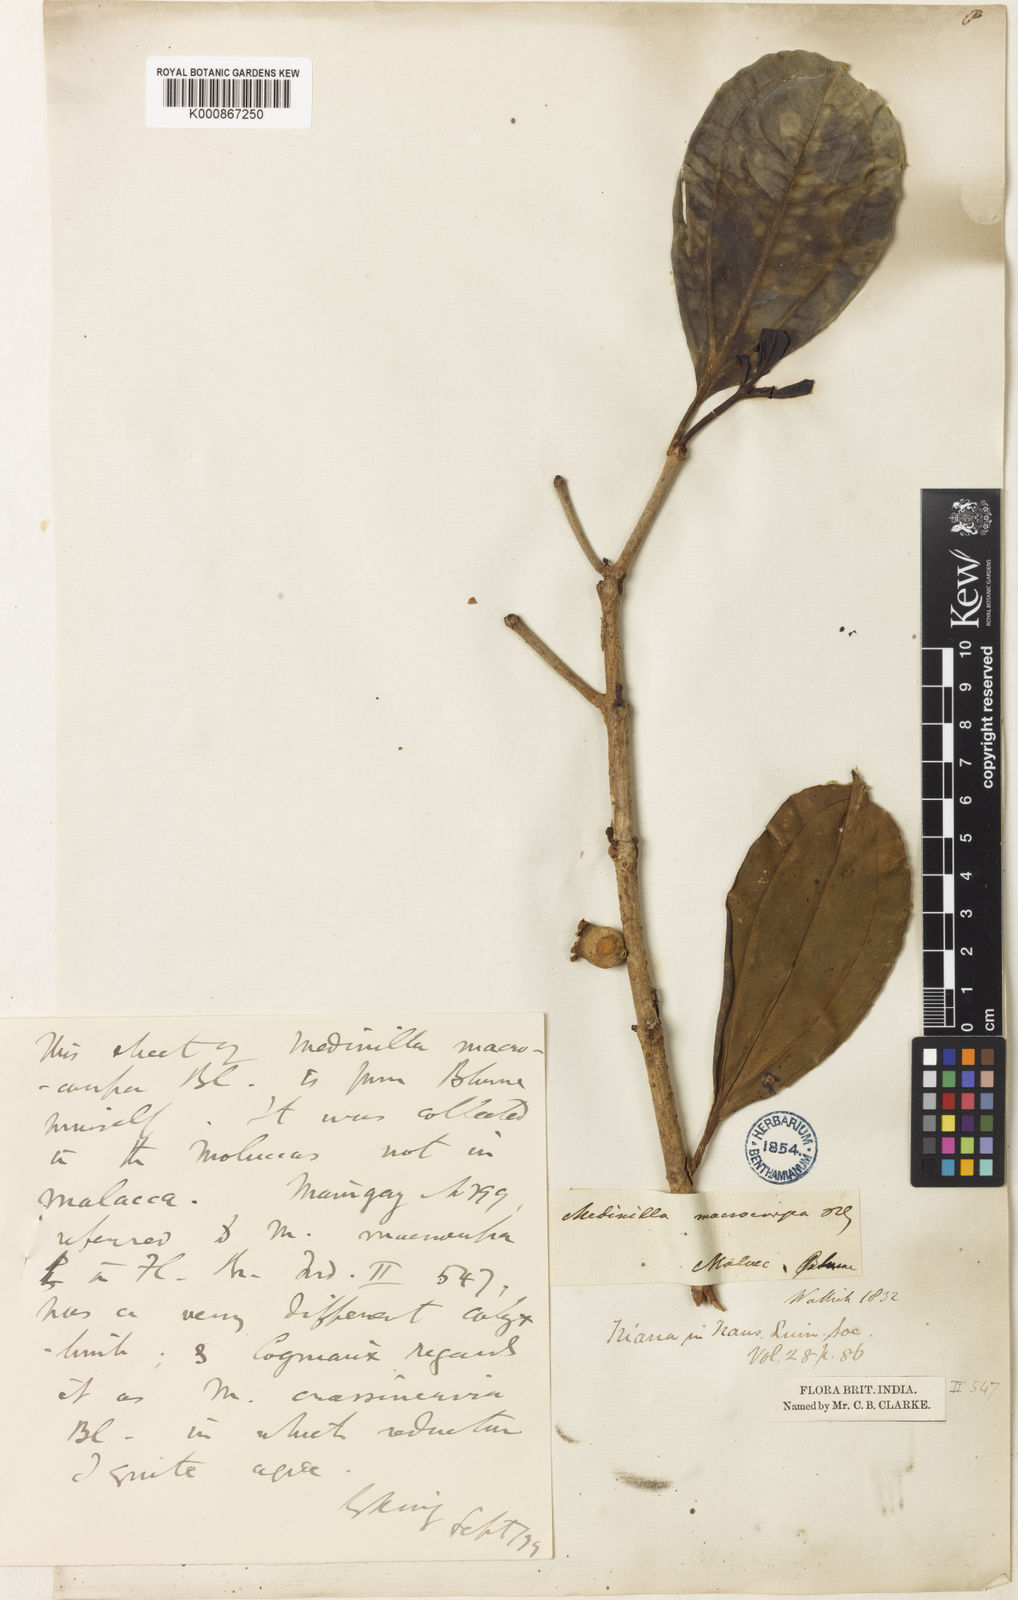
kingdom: Plantae
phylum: Tracheophyta
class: Magnoliopsida
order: Myrtales
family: Melastomataceae
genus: Medinilla
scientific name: Medinilla crassinervia
